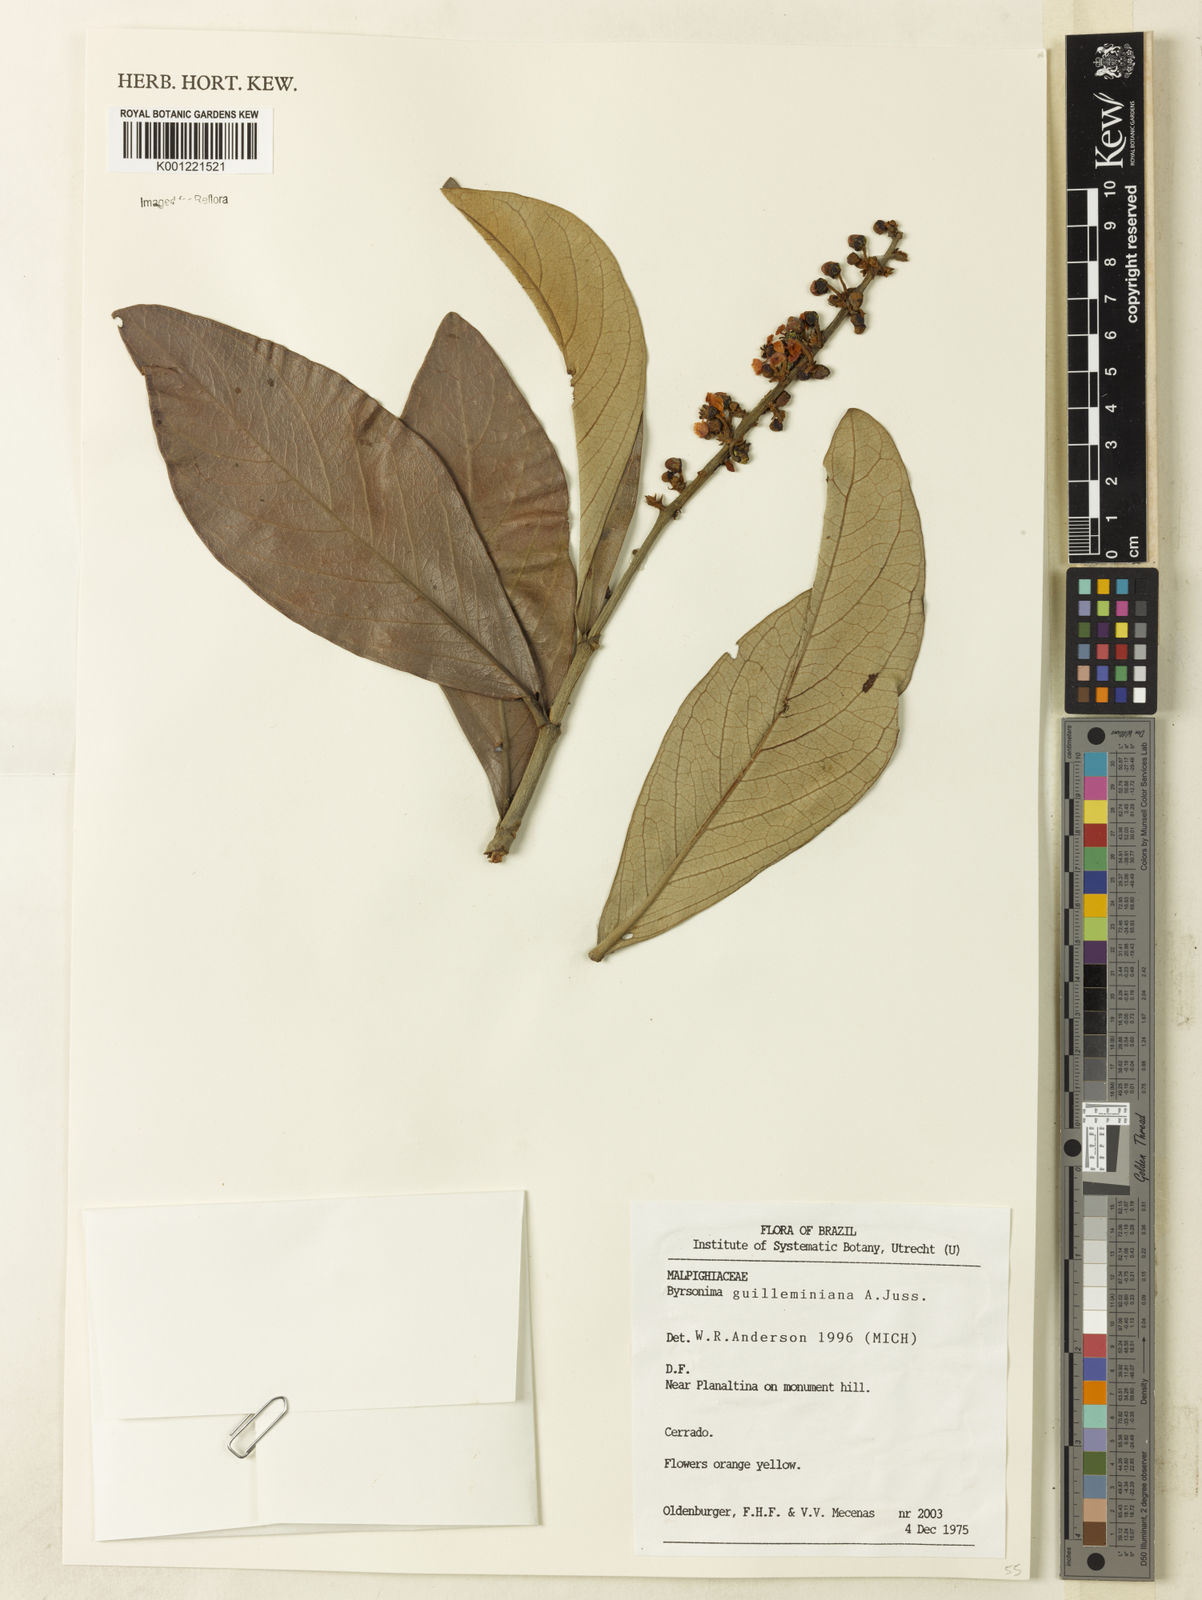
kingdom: Plantae
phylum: Tracheophyta
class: Magnoliopsida
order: Malpighiales
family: Malpighiaceae
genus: Byrsonima
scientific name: Byrsonima guilleminiana
